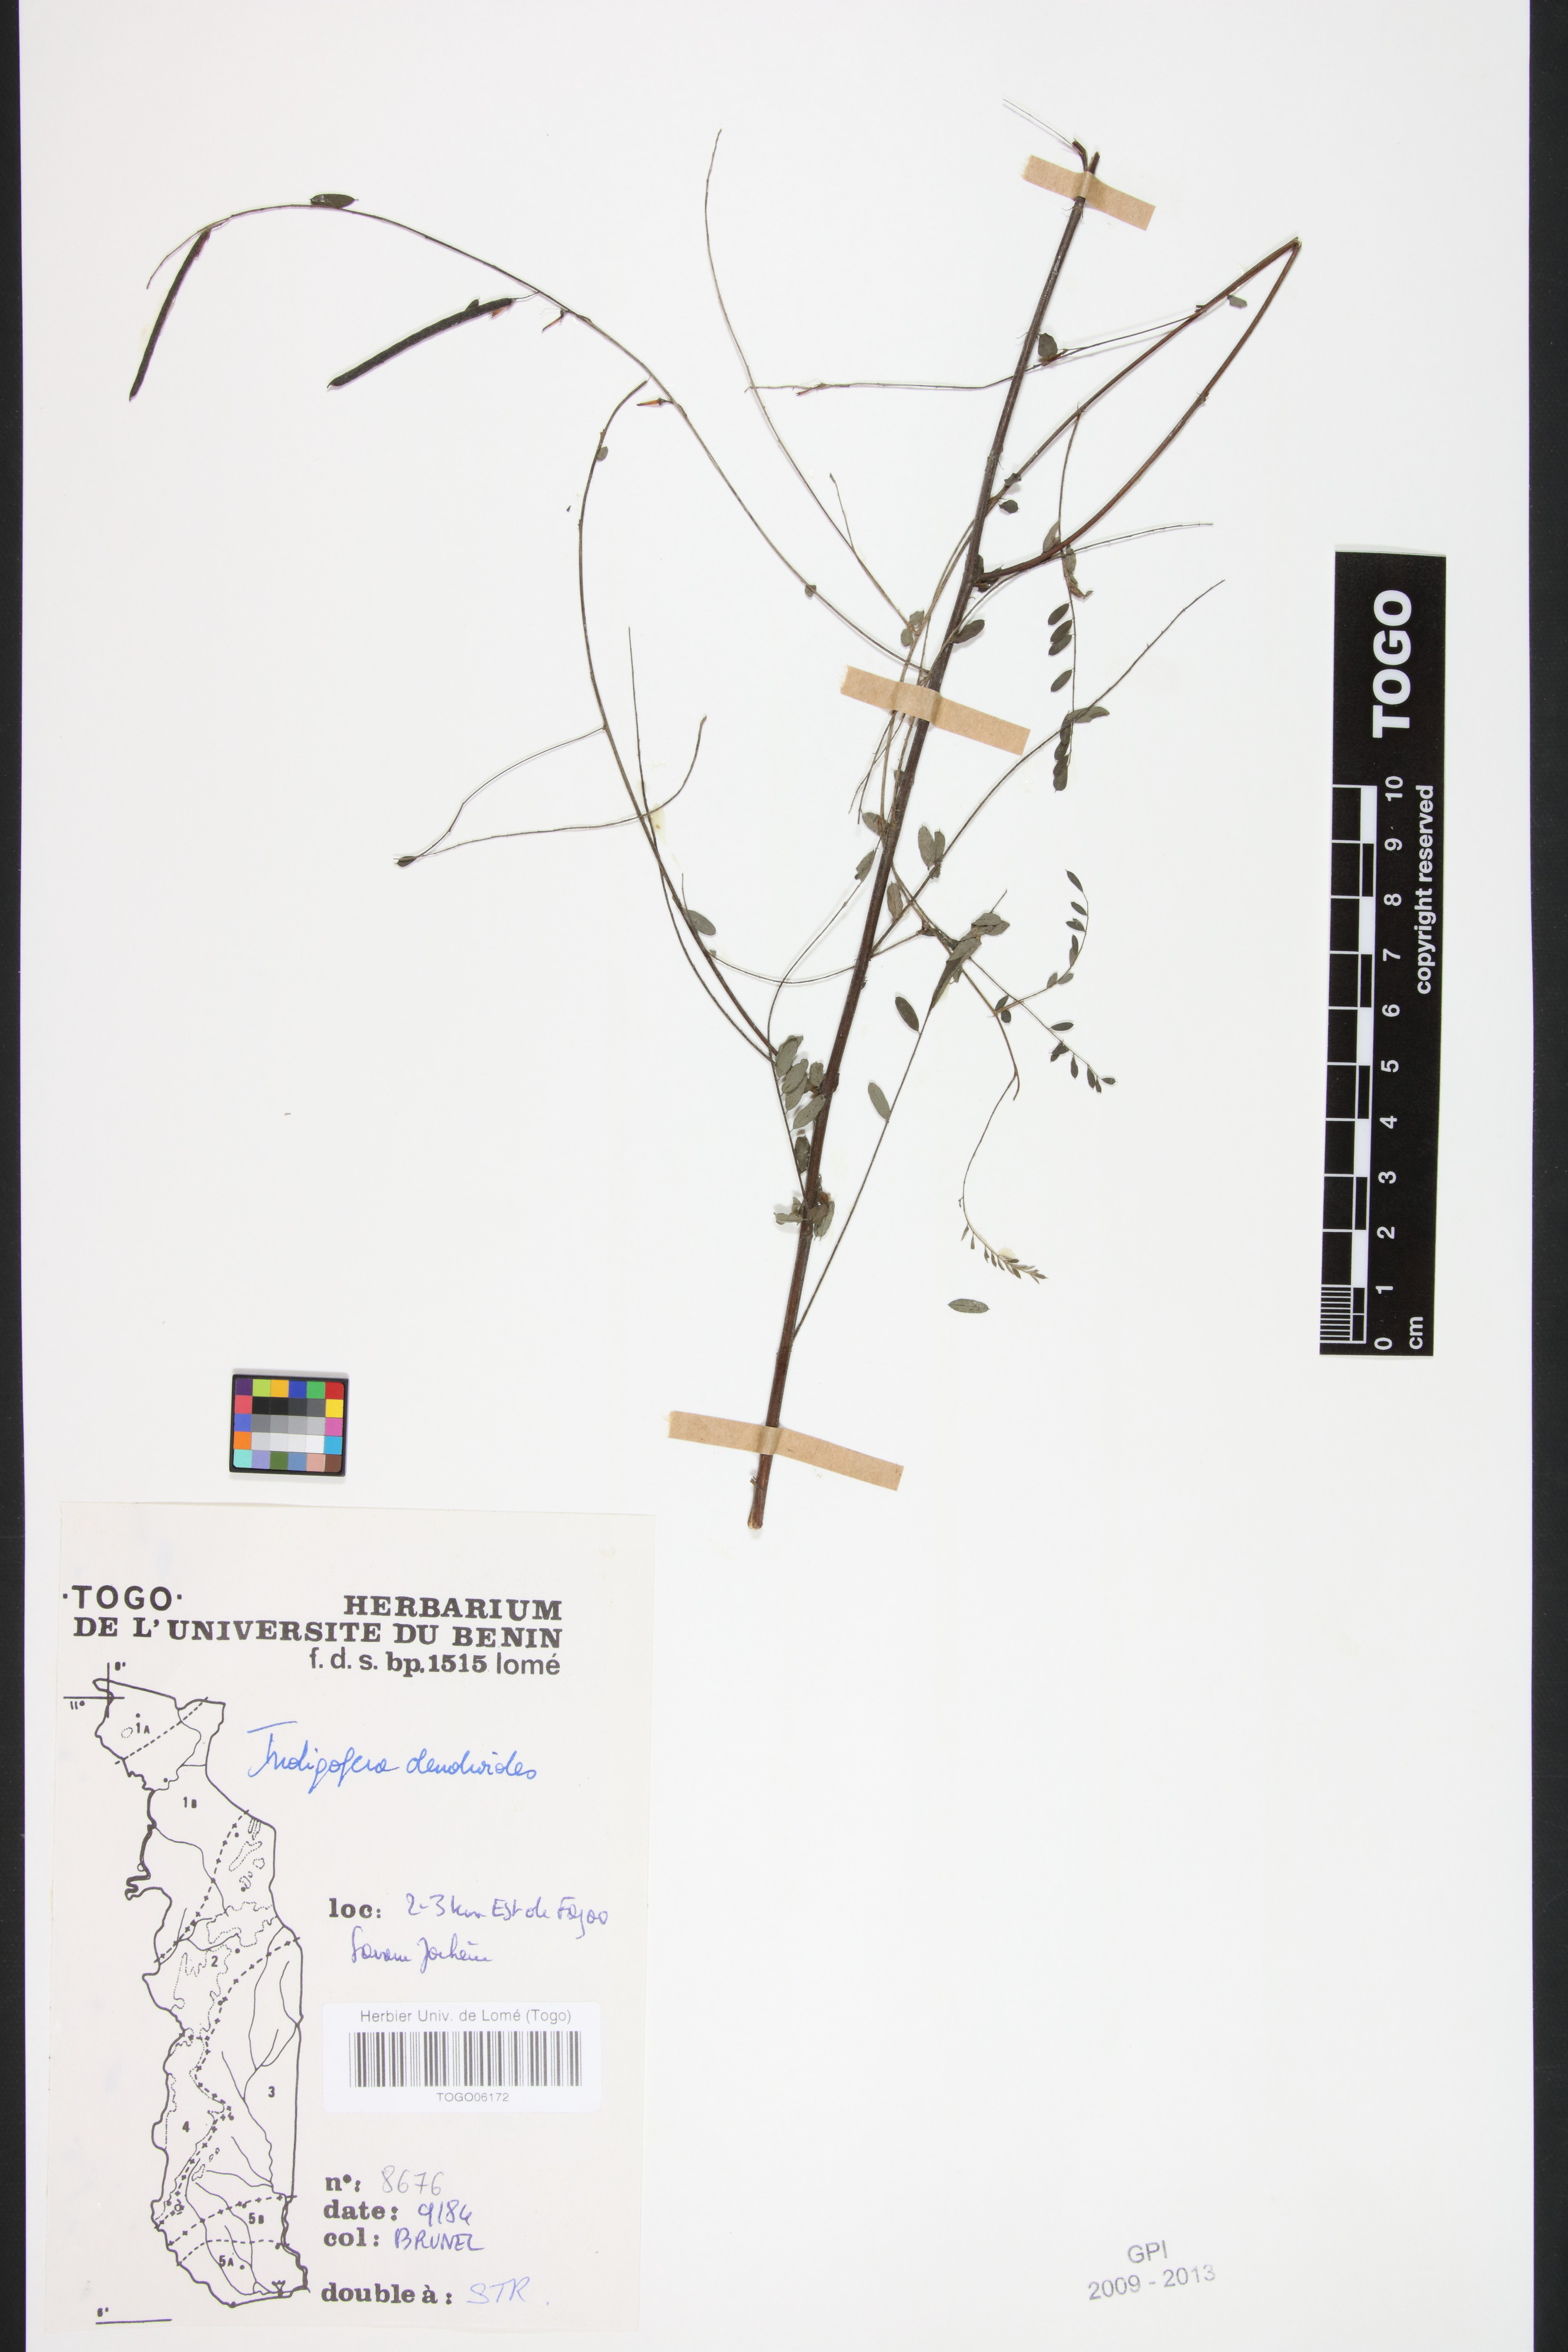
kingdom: Plantae
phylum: Tracheophyta
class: Magnoliopsida
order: Fabales
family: Fabaceae
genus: Indigofera
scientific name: Indigofera dendroides
